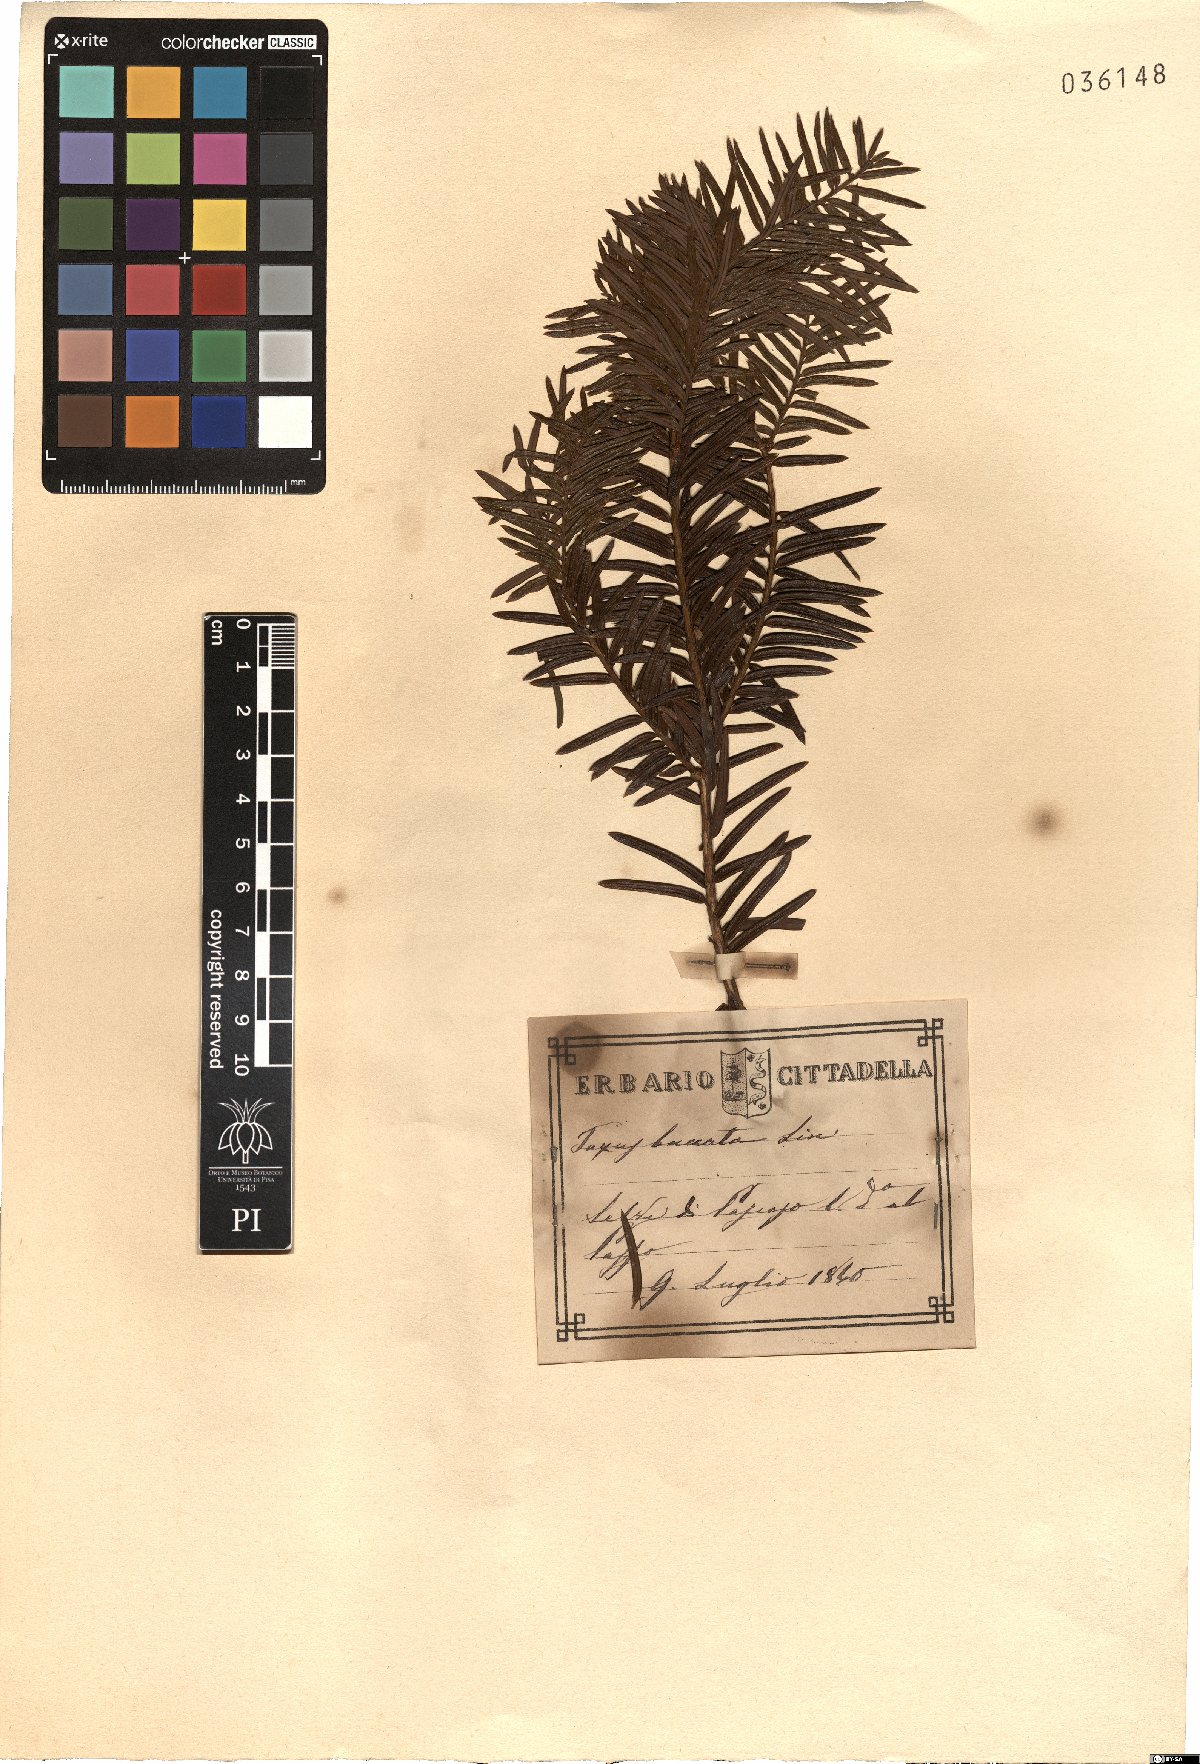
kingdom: Plantae
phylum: Tracheophyta
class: Pinopsida
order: Pinales
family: Taxaceae
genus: Taxus
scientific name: Taxus baccata
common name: Yew
